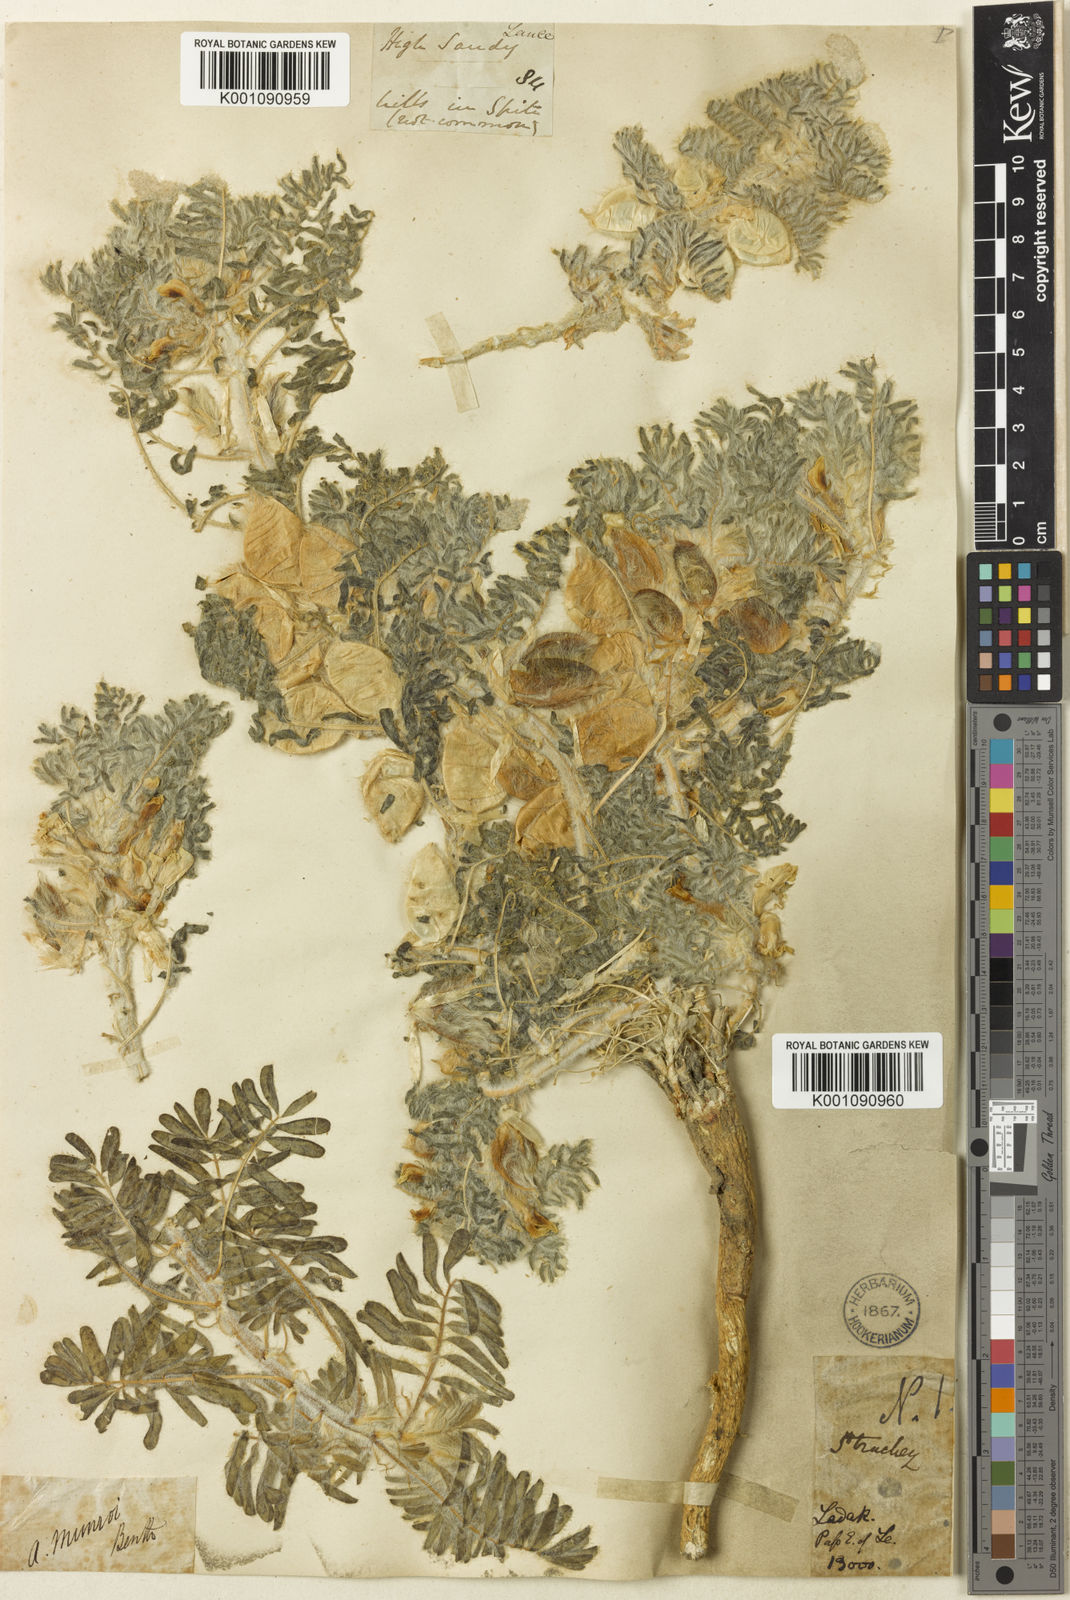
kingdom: Plantae
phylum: Tracheophyta
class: Magnoliopsida
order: Fabales
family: Fabaceae
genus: Astragalus
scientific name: Astragalus
